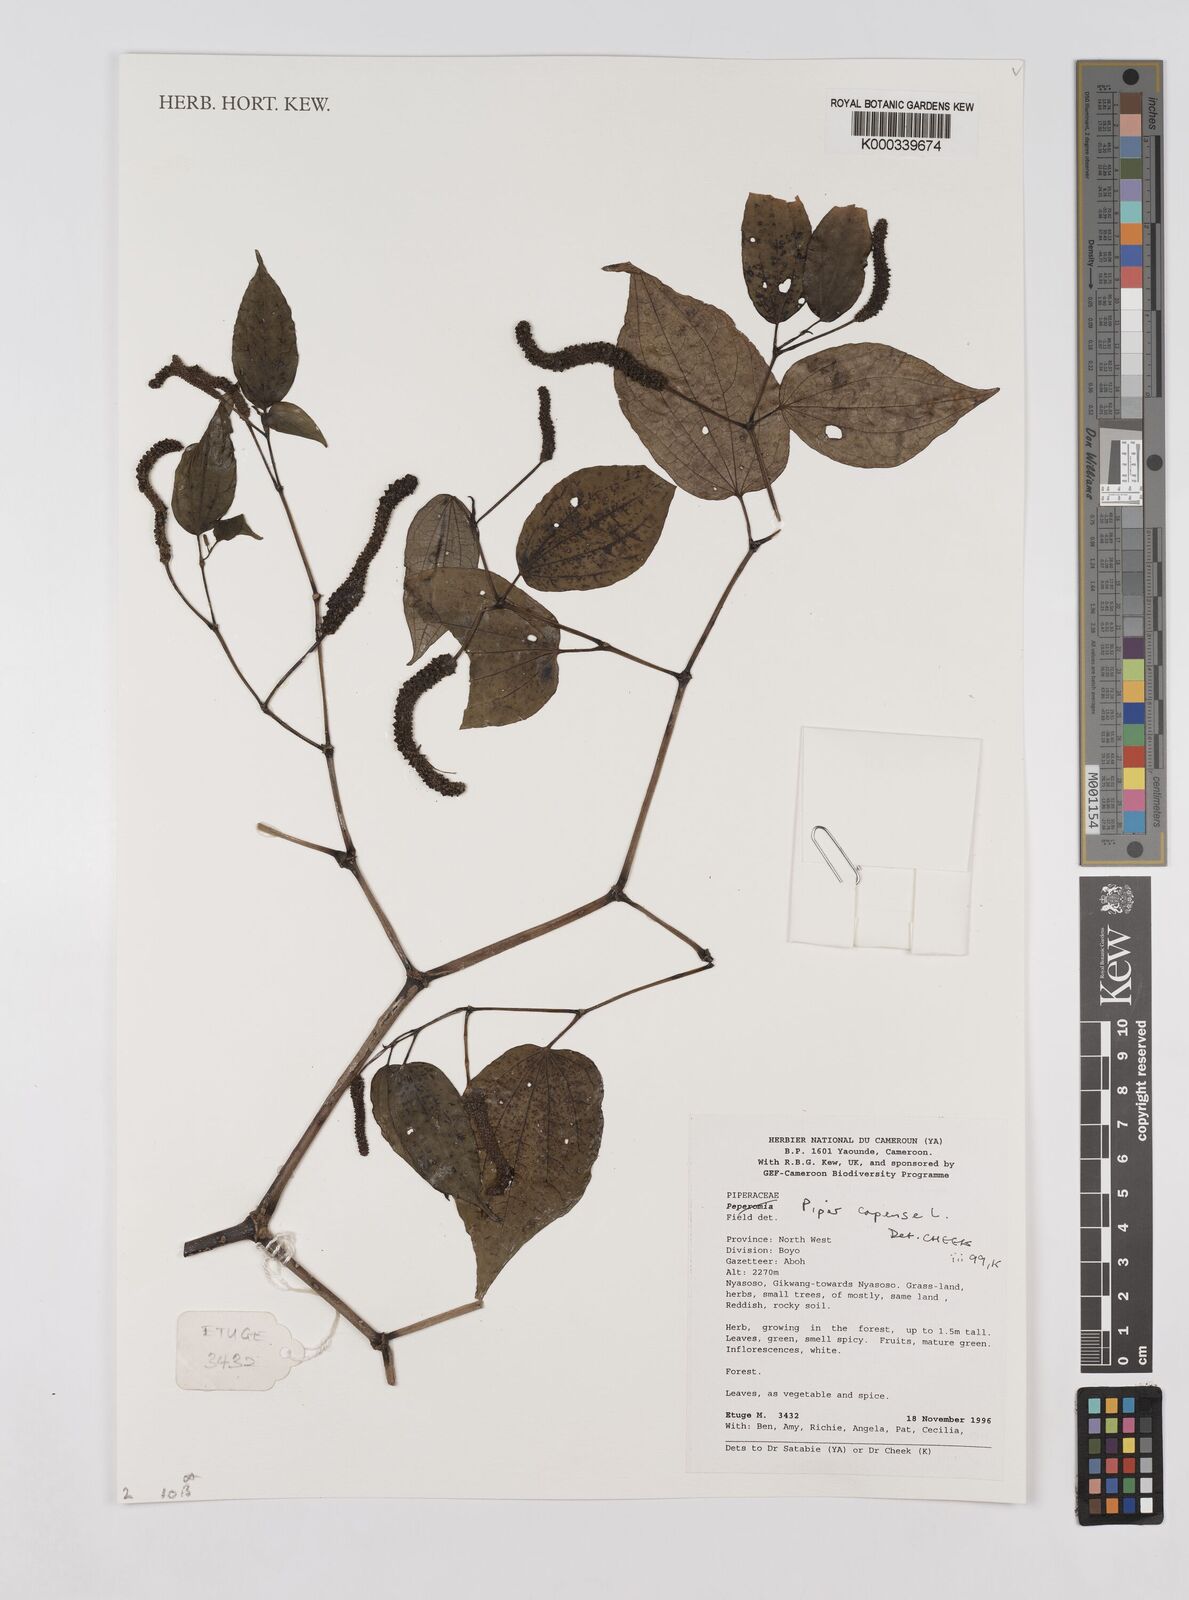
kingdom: Plantae
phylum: Tracheophyta
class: Magnoliopsida
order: Piperales
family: Piperaceae
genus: Piper
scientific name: Piper capense
